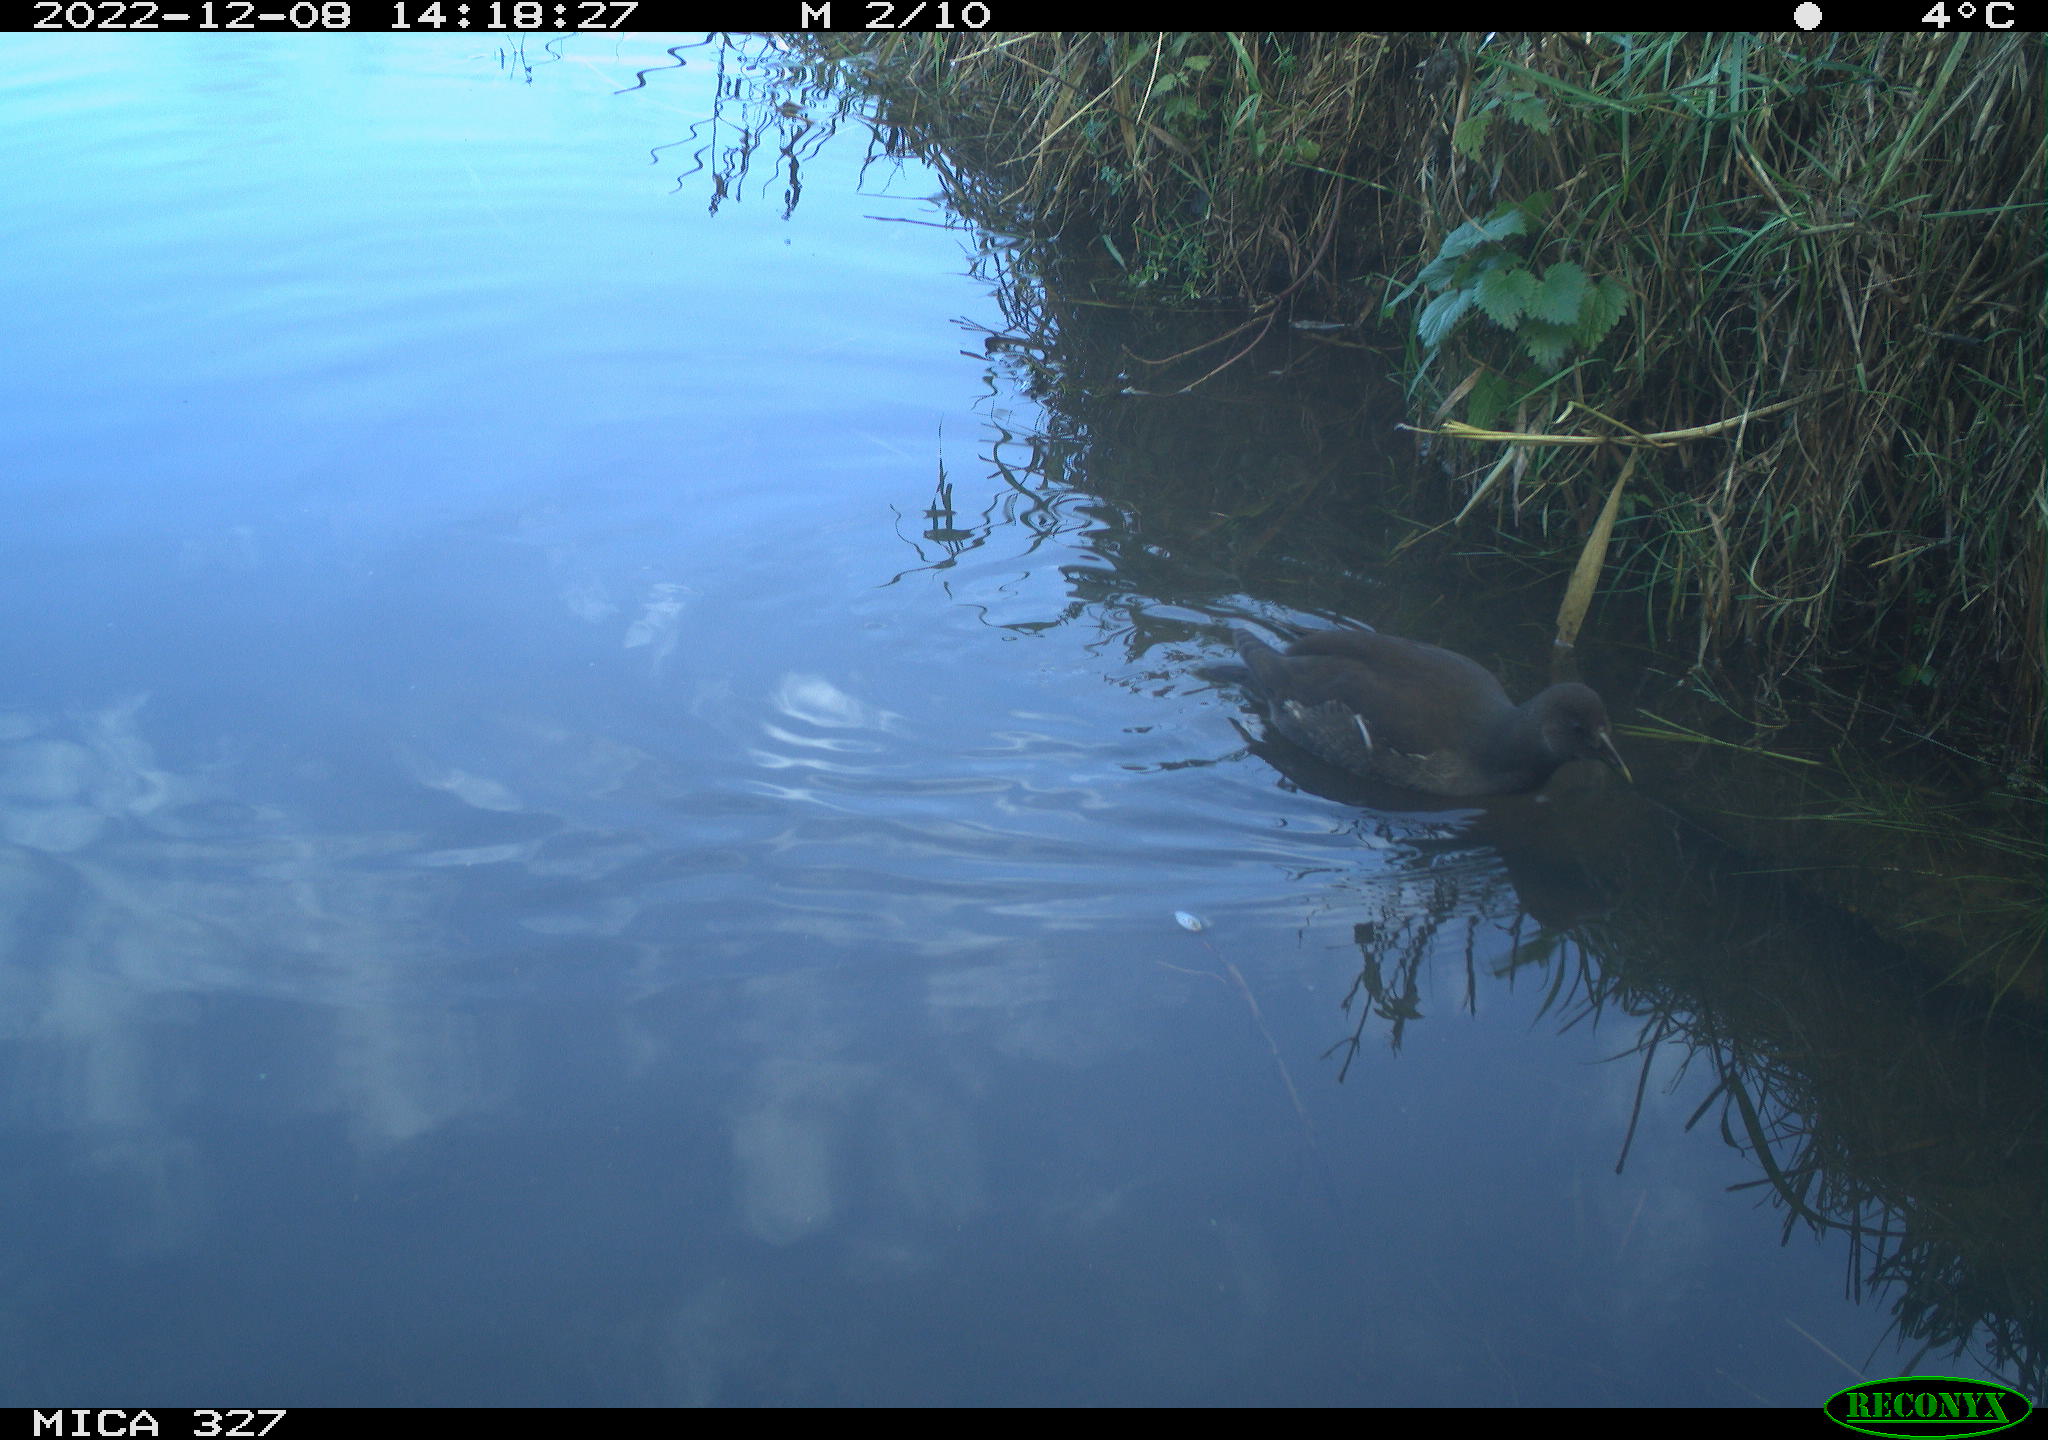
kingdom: Animalia
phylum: Chordata
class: Aves
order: Gruiformes
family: Rallidae
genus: Gallinula
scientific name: Gallinula chloropus
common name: Common moorhen
